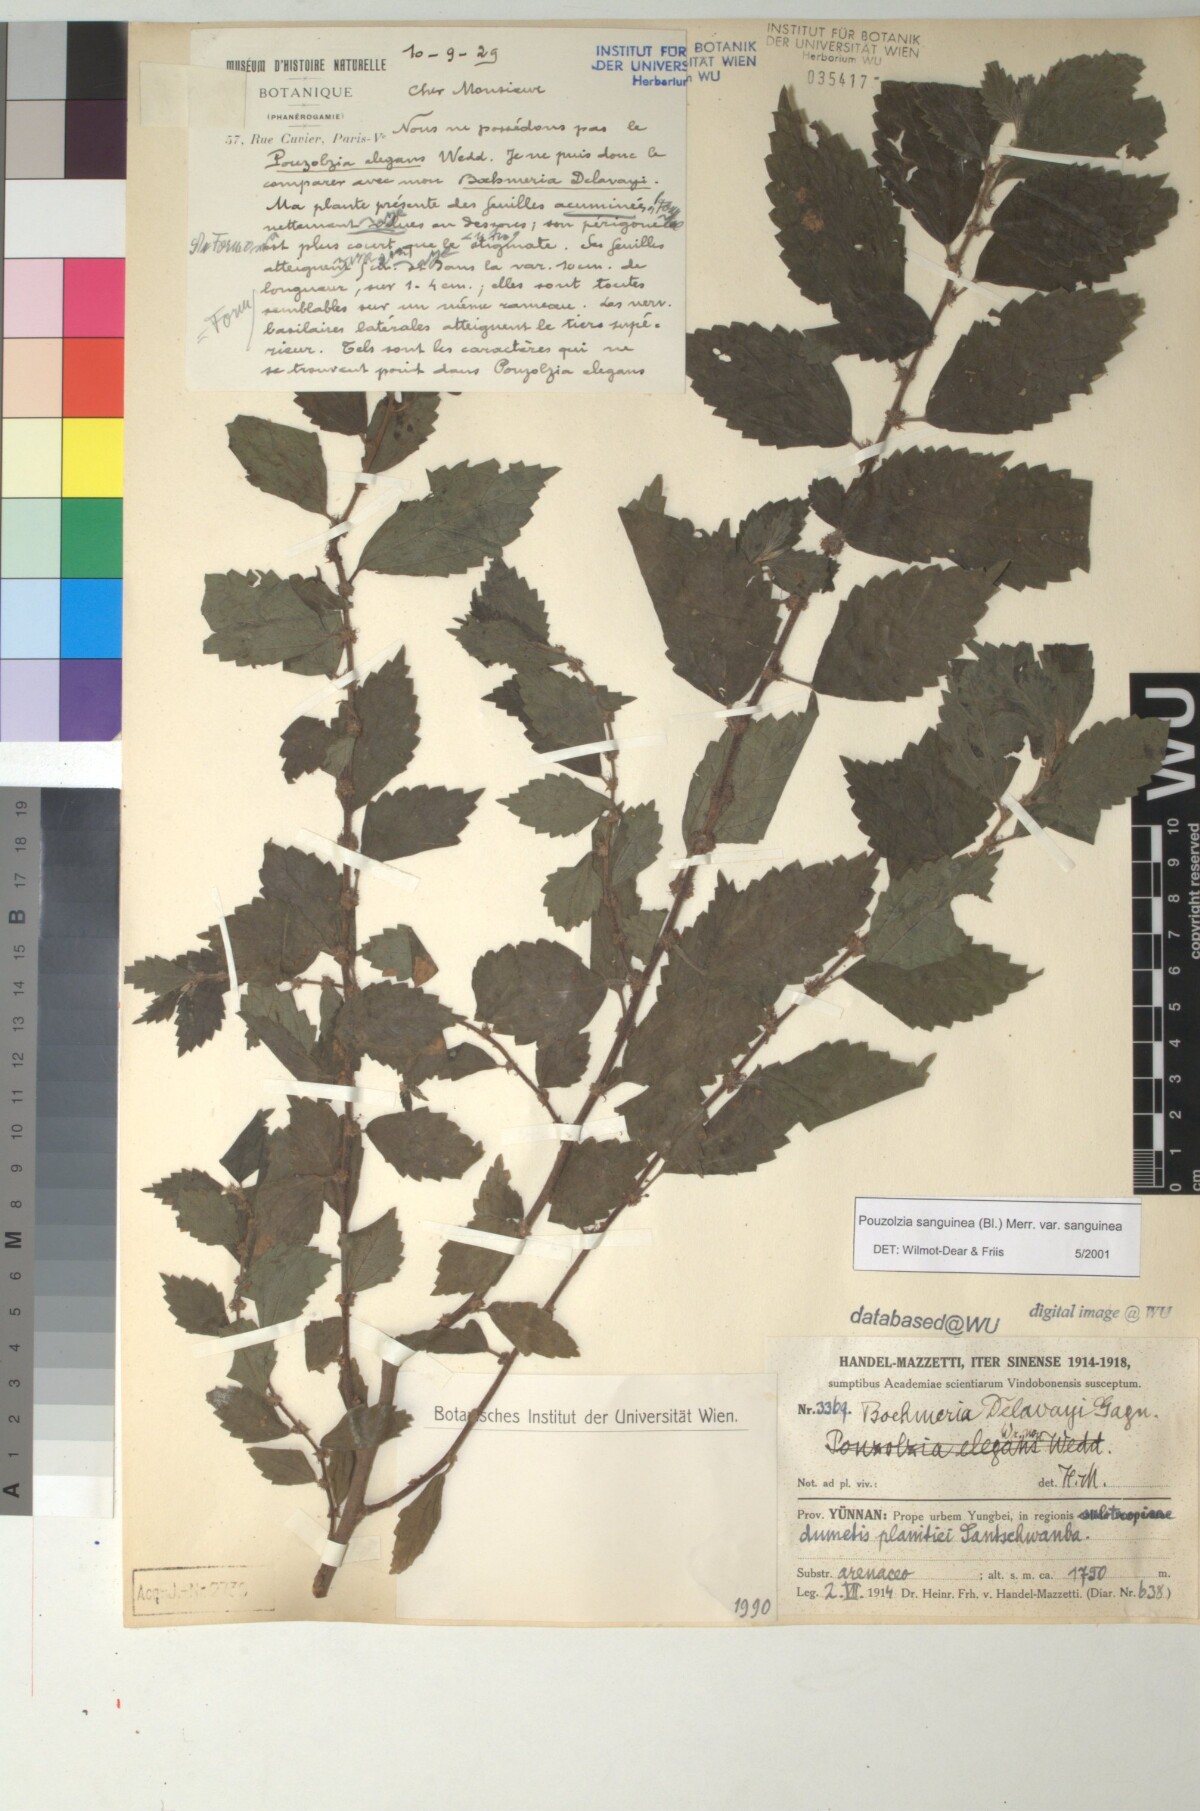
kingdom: Plantae
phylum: Tracheophyta
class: Magnoliopsida
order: Rosales
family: Urticaceae
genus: Pouzolzia
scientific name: Pouzolzia sanguinea
